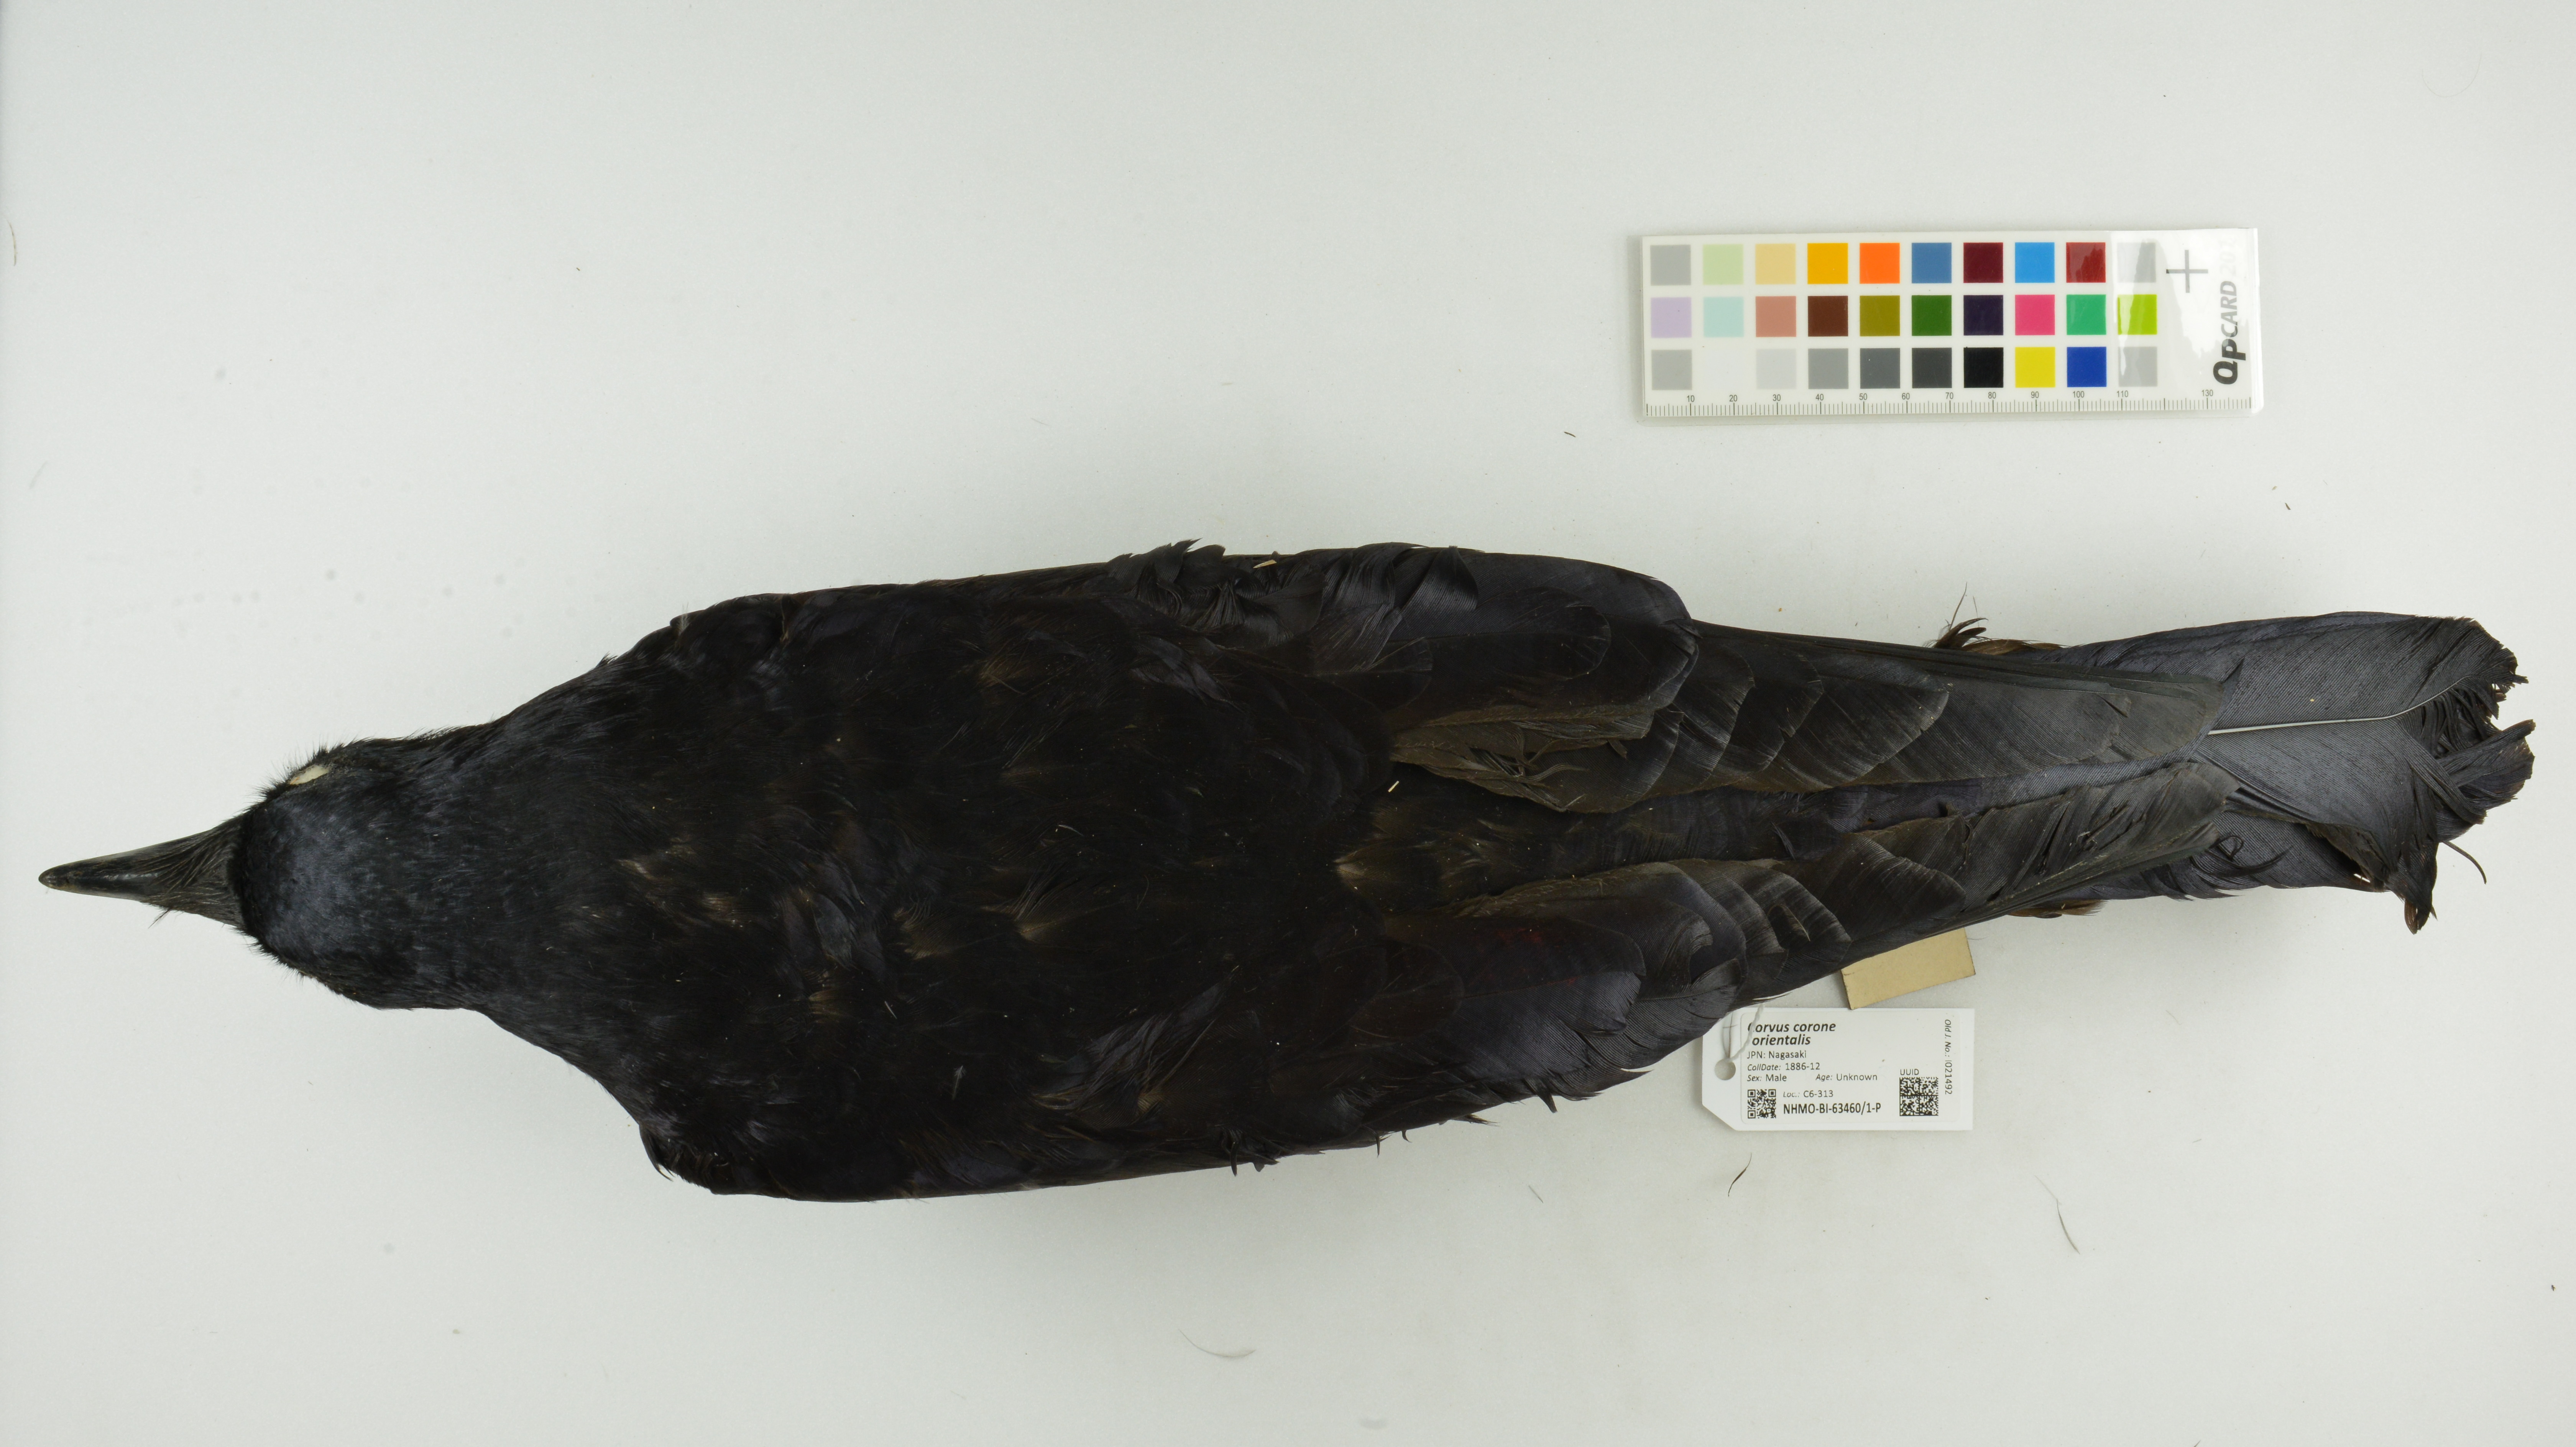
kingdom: Animalia
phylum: Chordata
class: Aves
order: Passeriformes
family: Corvidae
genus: Corvus
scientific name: Corvus corone
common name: Carrion crow
